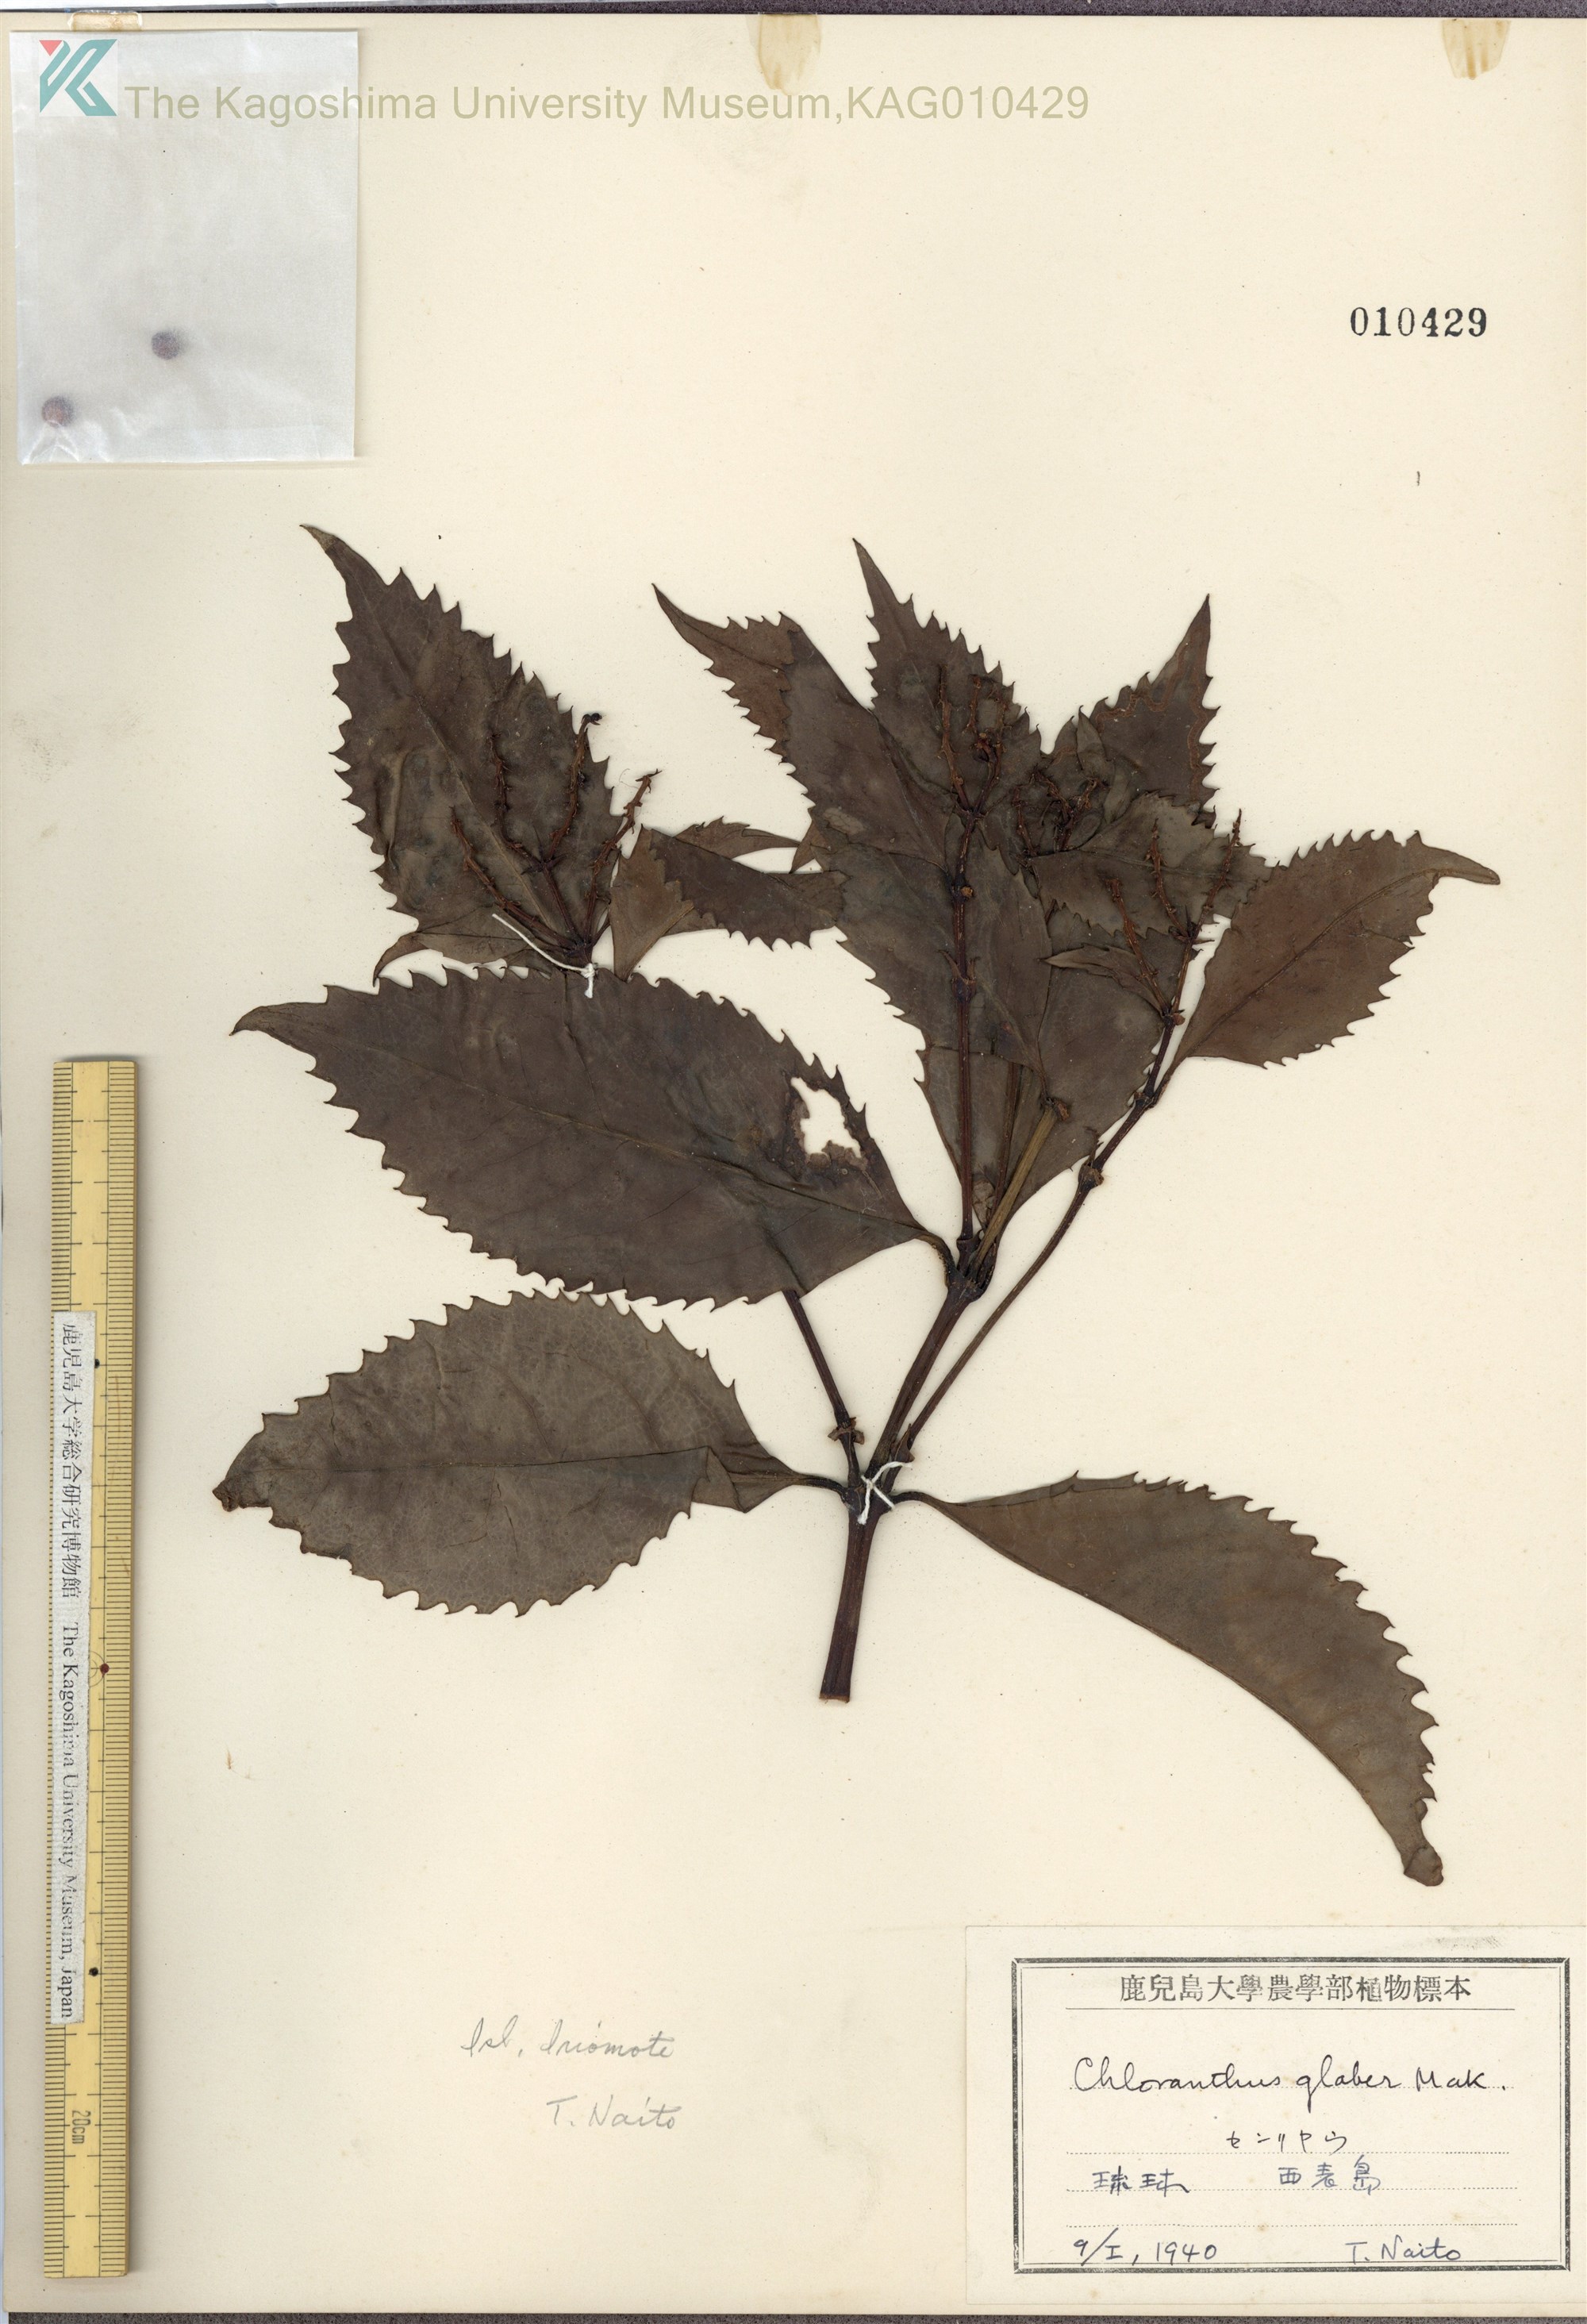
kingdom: Plantae
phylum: Tracheophyta
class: Magnoliopsida
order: Chloranthales
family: Chloranthaceae
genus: Sarcandra
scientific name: Sarcandra glabra
